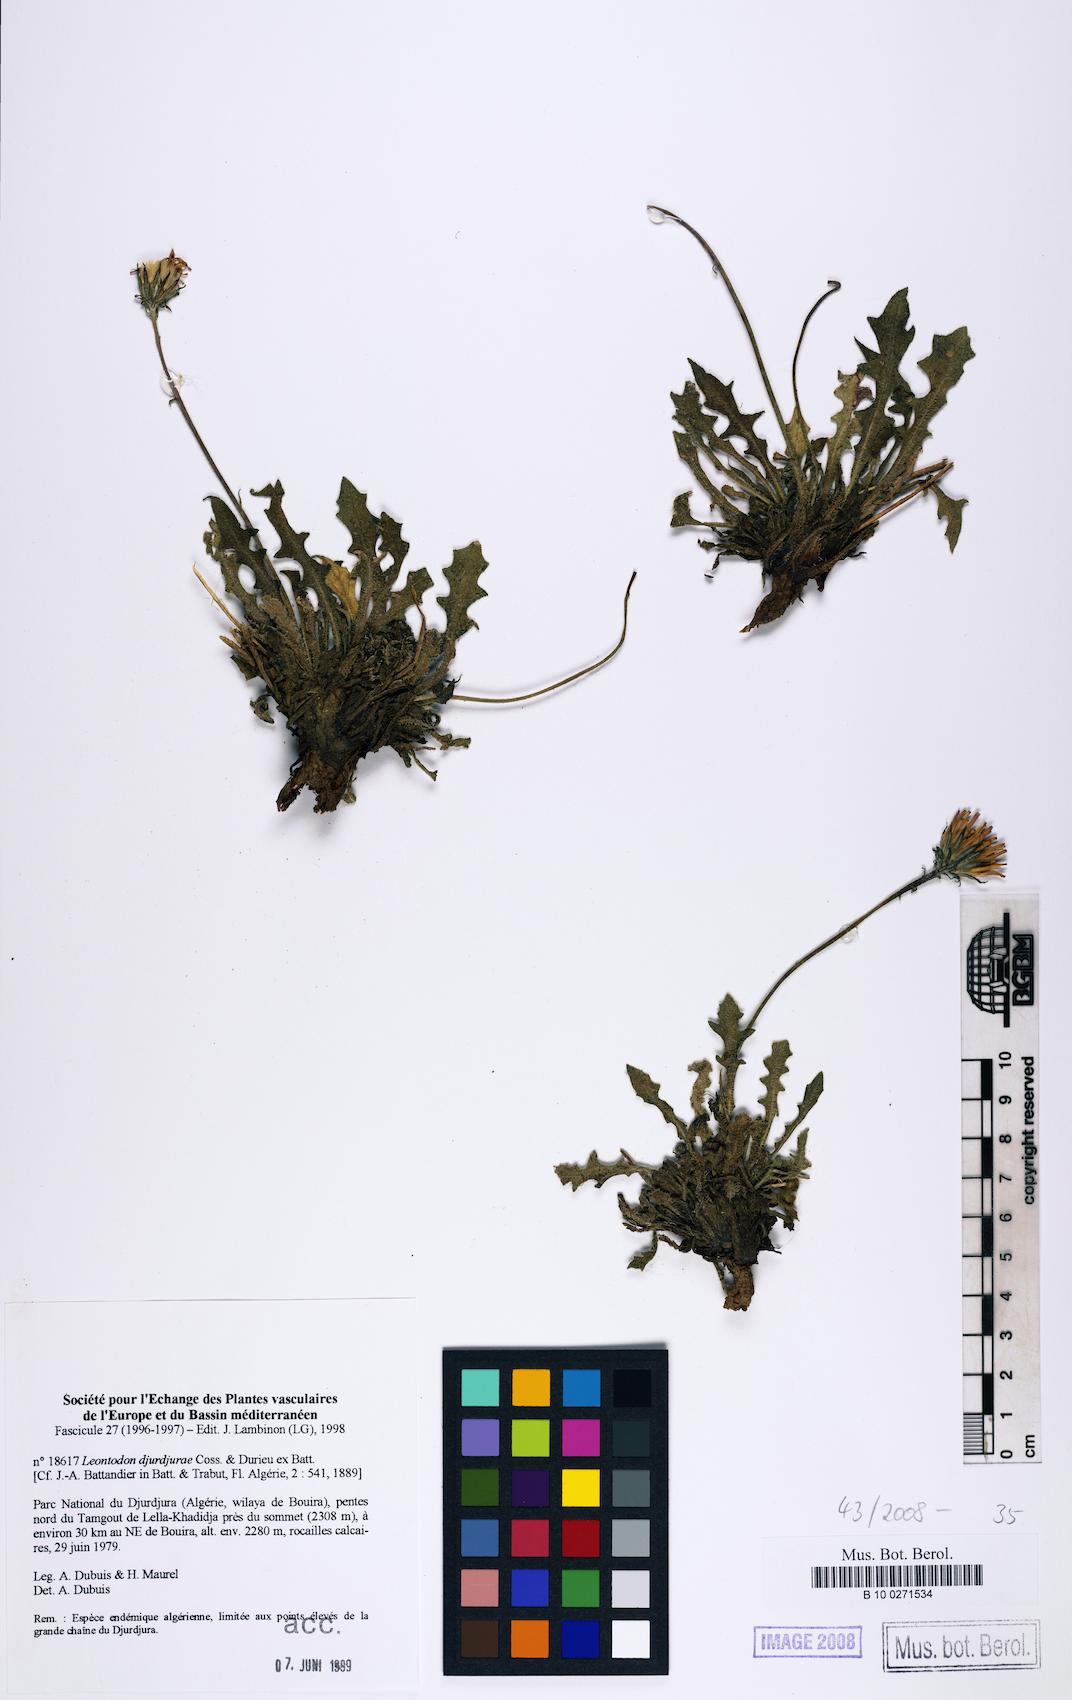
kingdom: Plantae
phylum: Tracheophyta
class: Magnoliopsida
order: Asterales
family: Asteraceae
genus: Leontodon
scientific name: Leontodon djurdjurae
